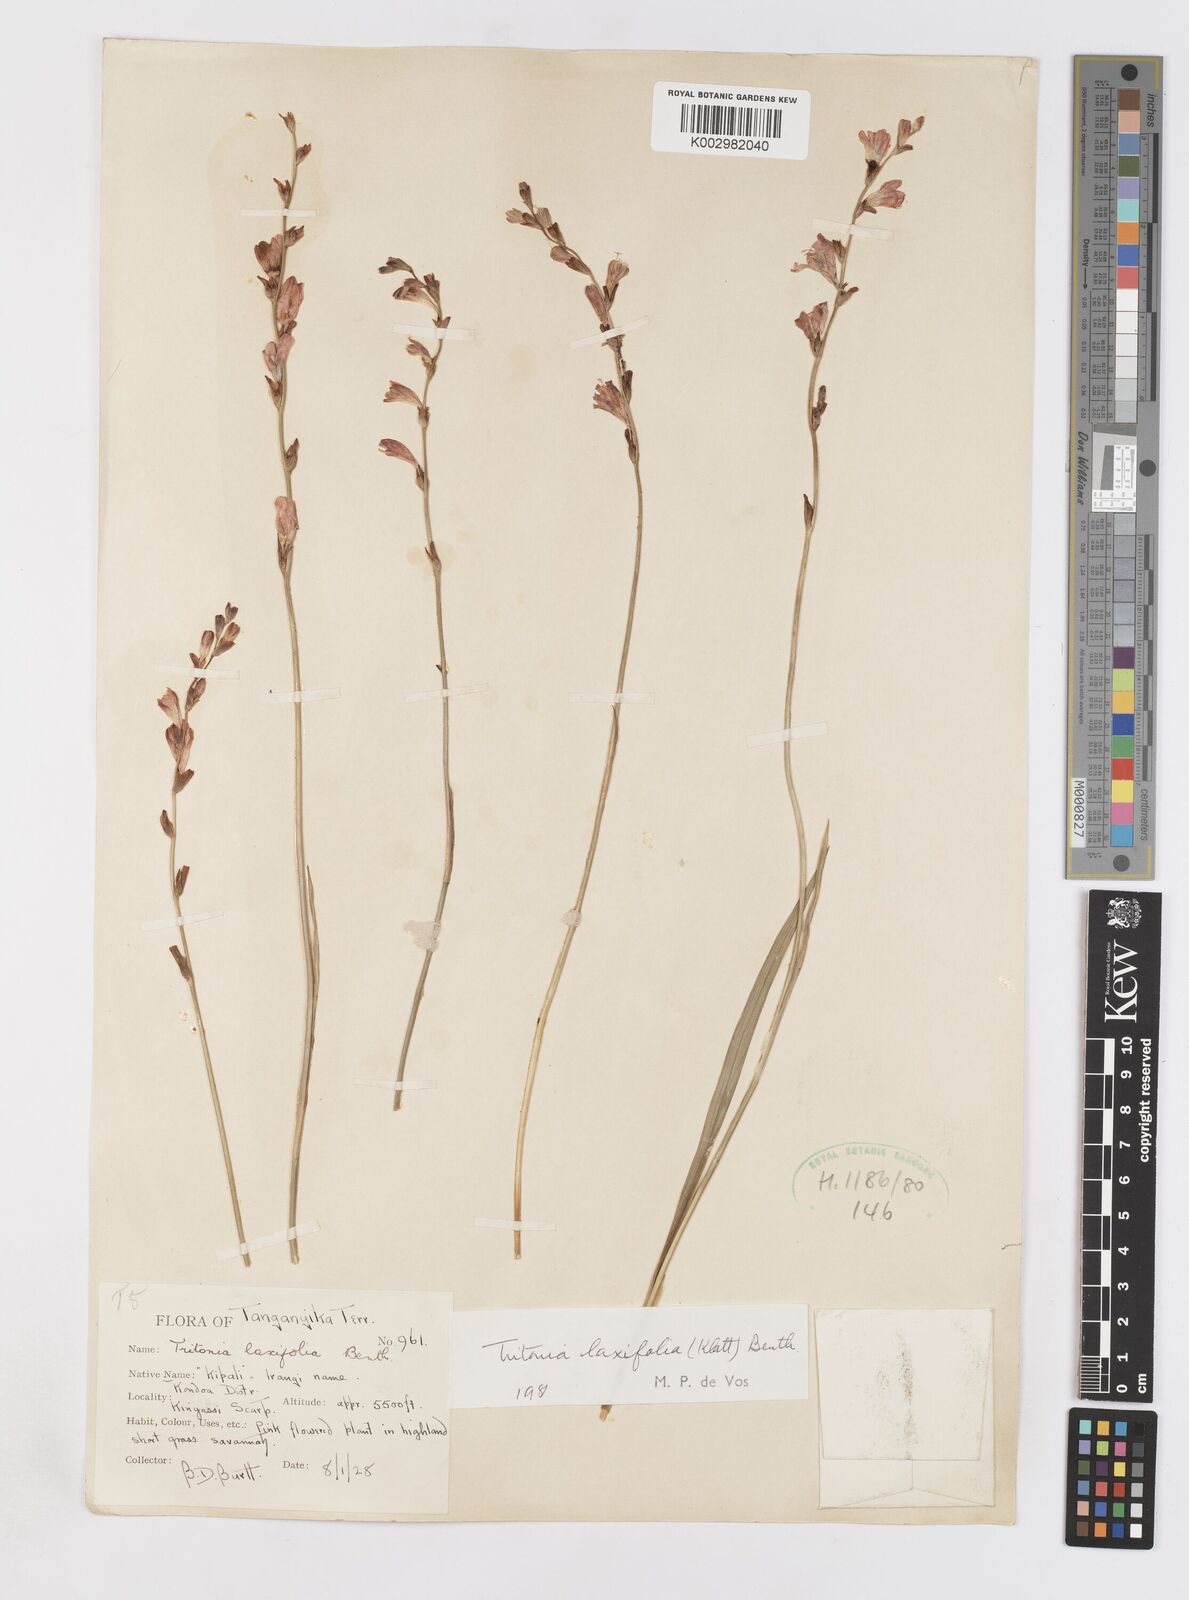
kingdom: Plantae
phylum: Tracheophyta
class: Liliopsida
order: Asparagales
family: Iridaceae
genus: Tritonia
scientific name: Tritonia laxifolia
